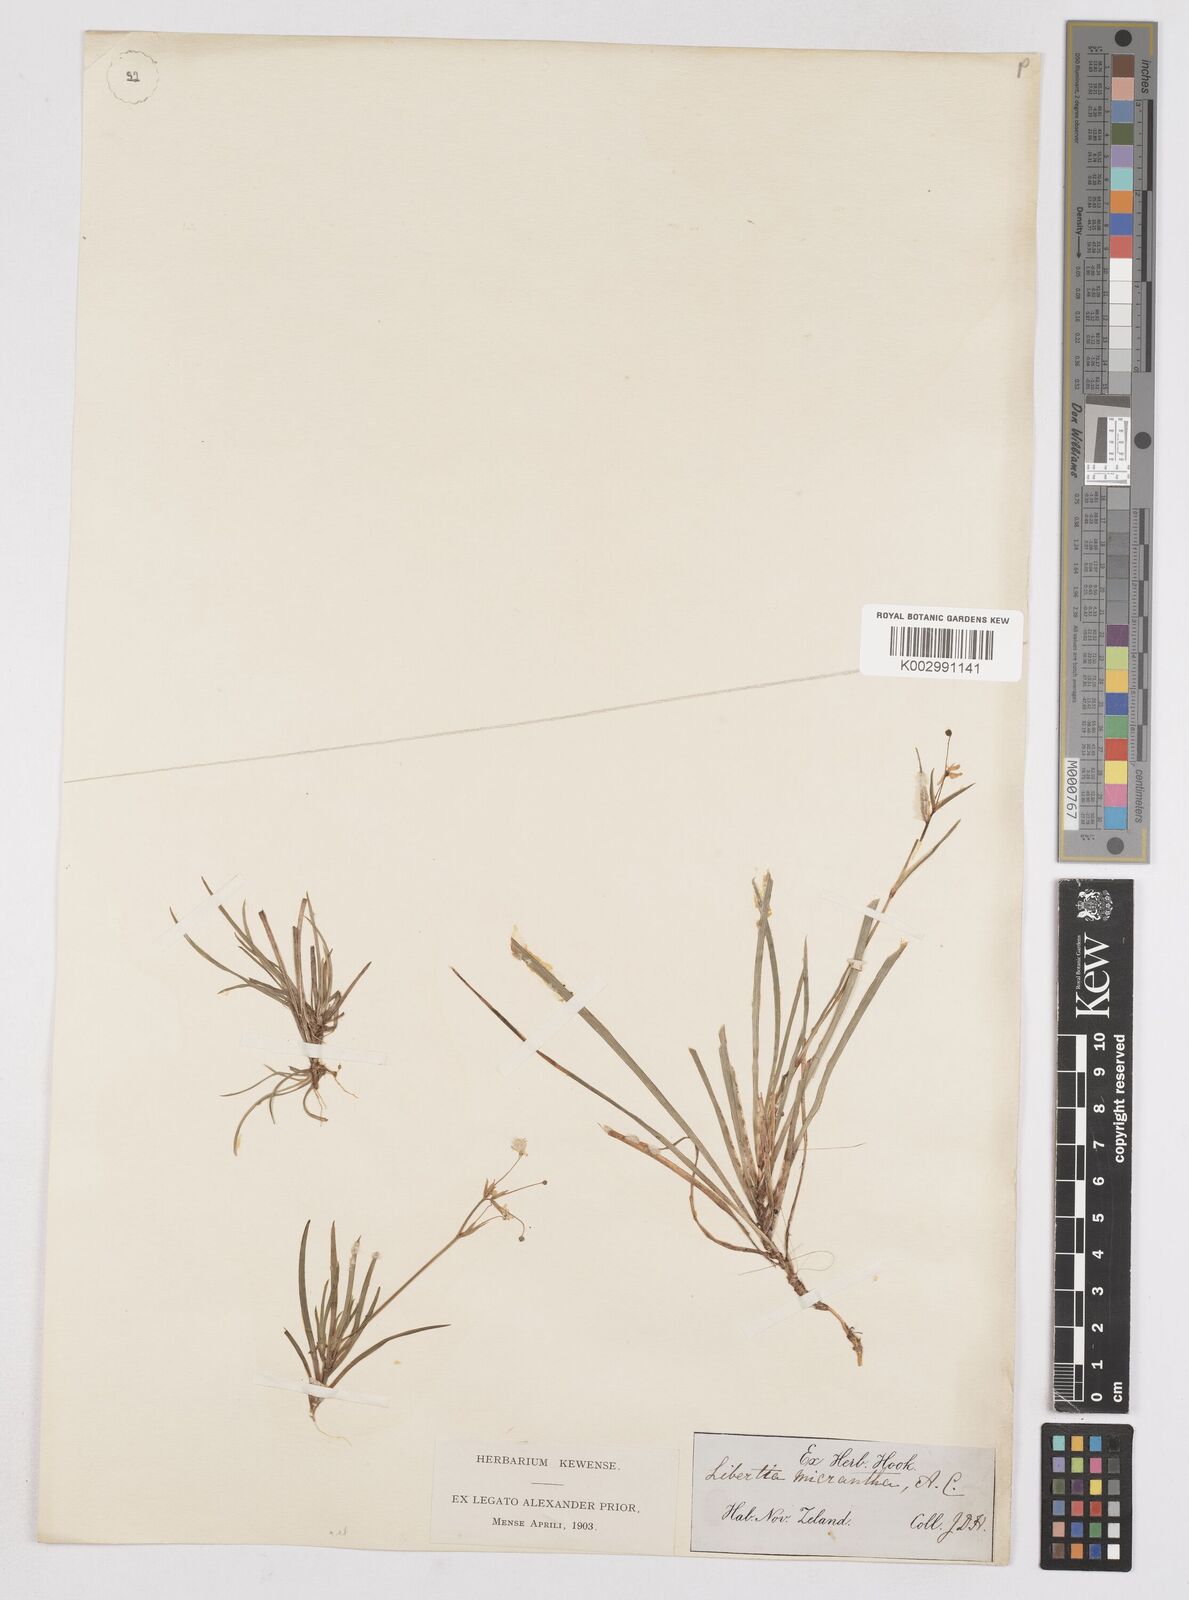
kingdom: Plantae
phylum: Tracheophyta
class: Liliopsida
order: Asparagales
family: Iridaceae
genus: Libertia
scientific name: Libertia pulchella
